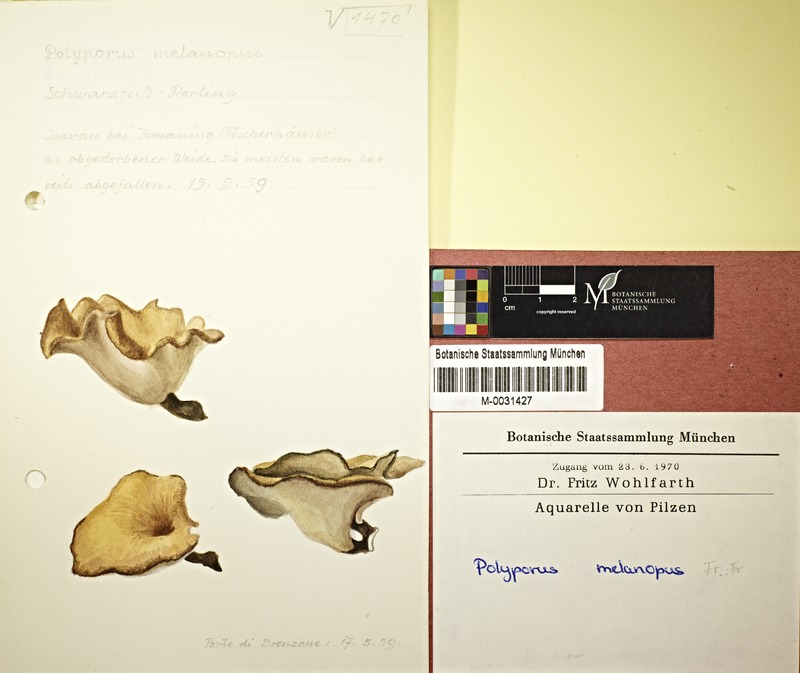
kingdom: Fungi
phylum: Basidiomycota
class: Agaricomycetes
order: Polyporales
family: Polyporaceae
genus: Picipes
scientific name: Picipes melanopus
